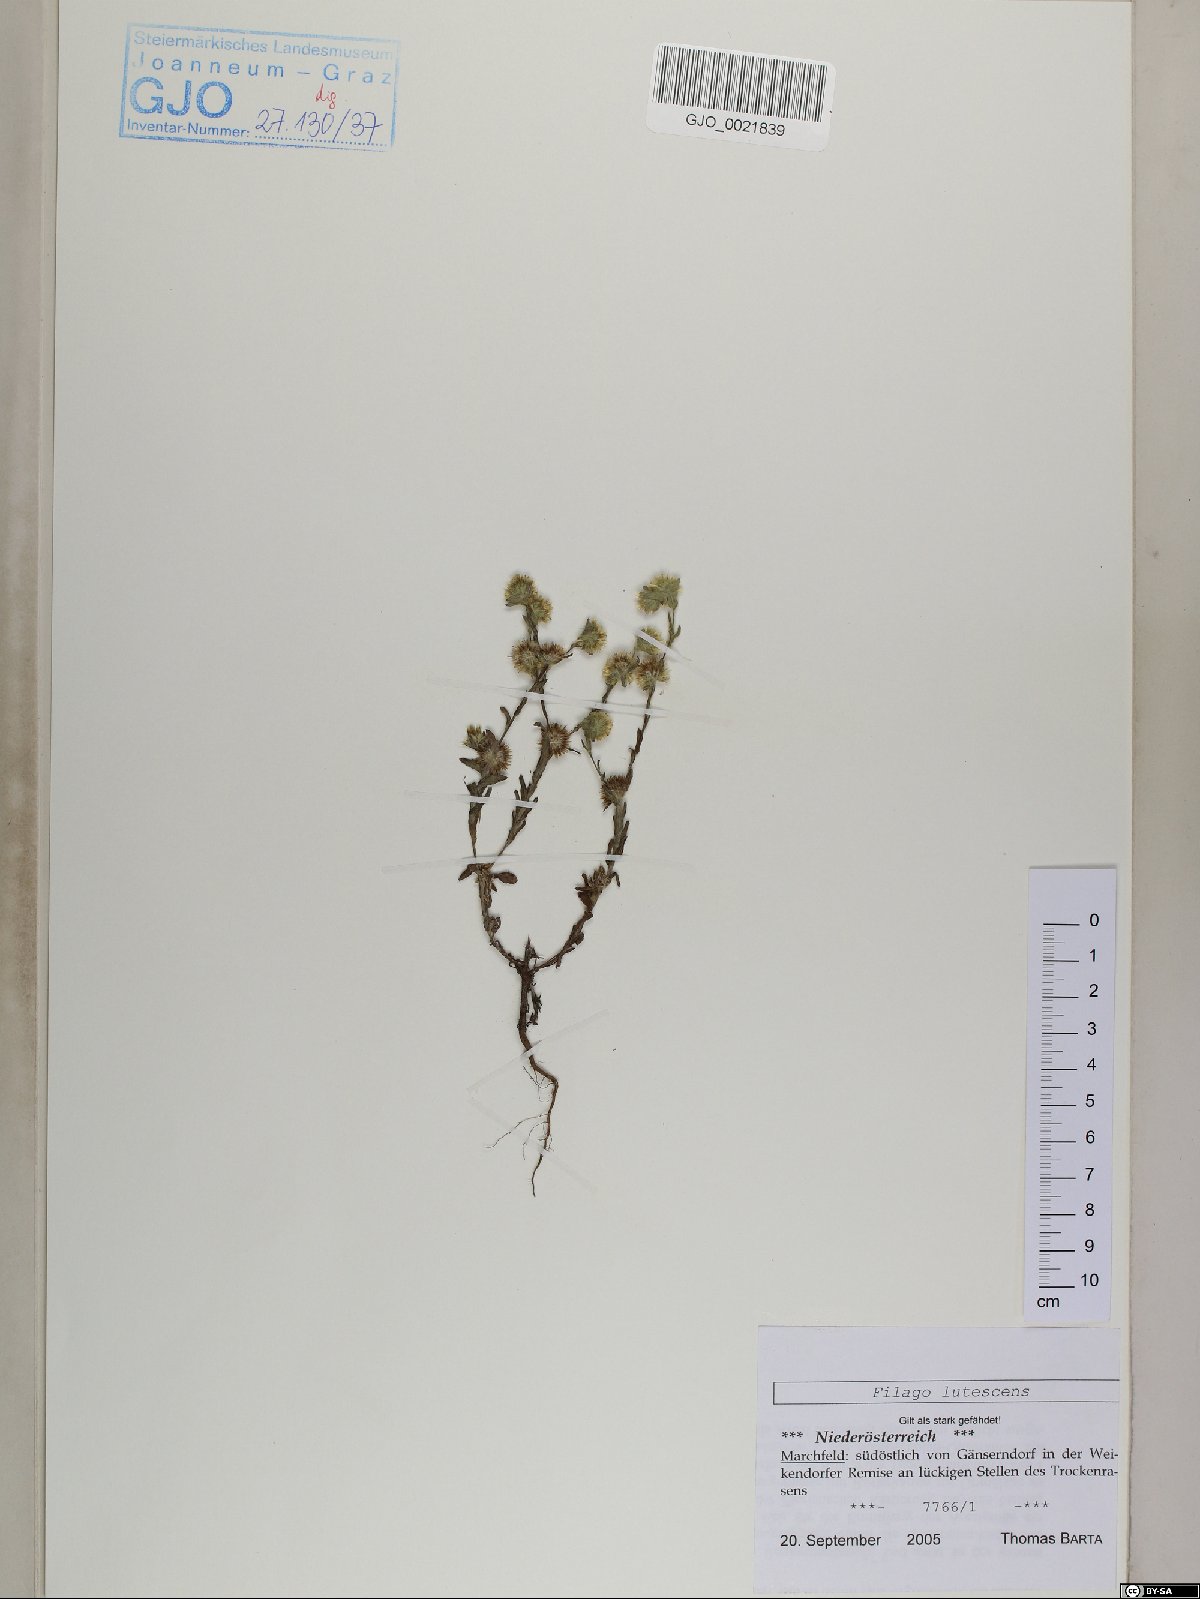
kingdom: Plantae
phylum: Tracheophyta
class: Magnoliopsida
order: Asterales
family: Asteraceae
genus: Filago
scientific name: Filago lutescens
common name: Red-tipped cudweed
